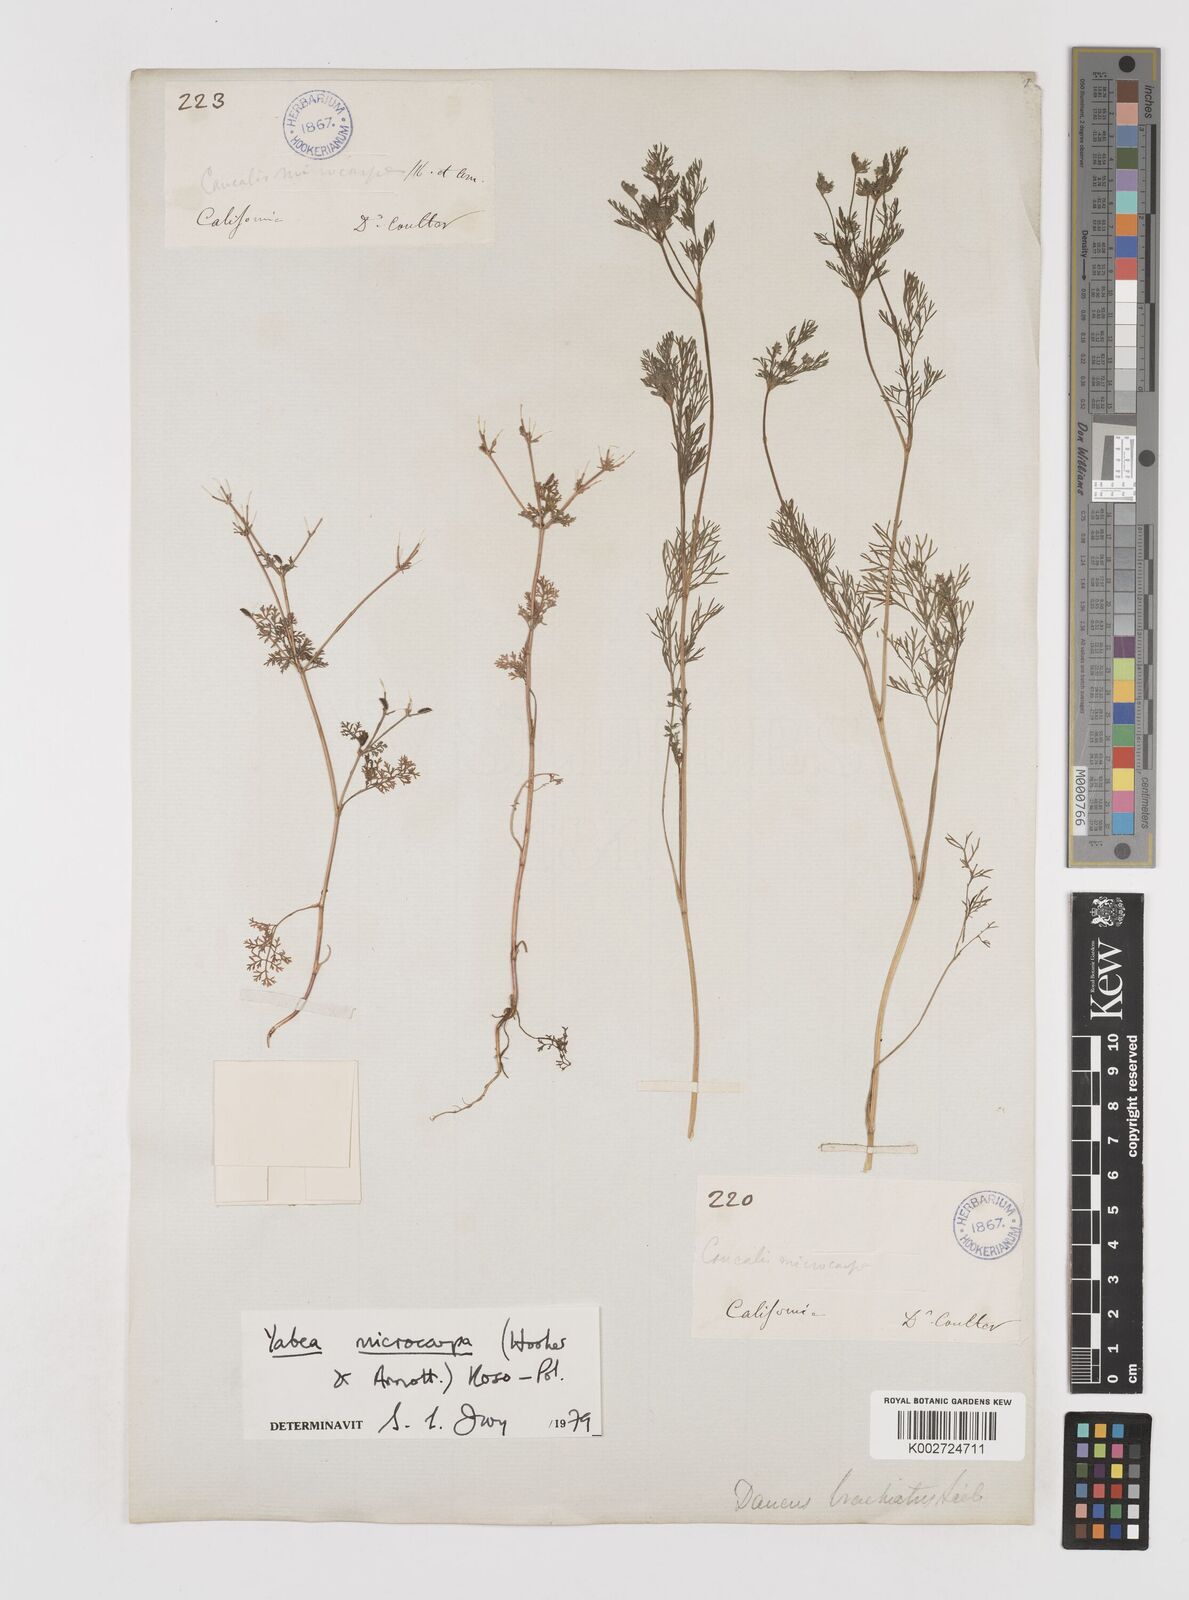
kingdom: Plantae
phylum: Tracheophyta
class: Magnoliopsida
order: Apiales
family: Apiaceae
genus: Yabea
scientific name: Yabea microcarpa
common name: False carrot
